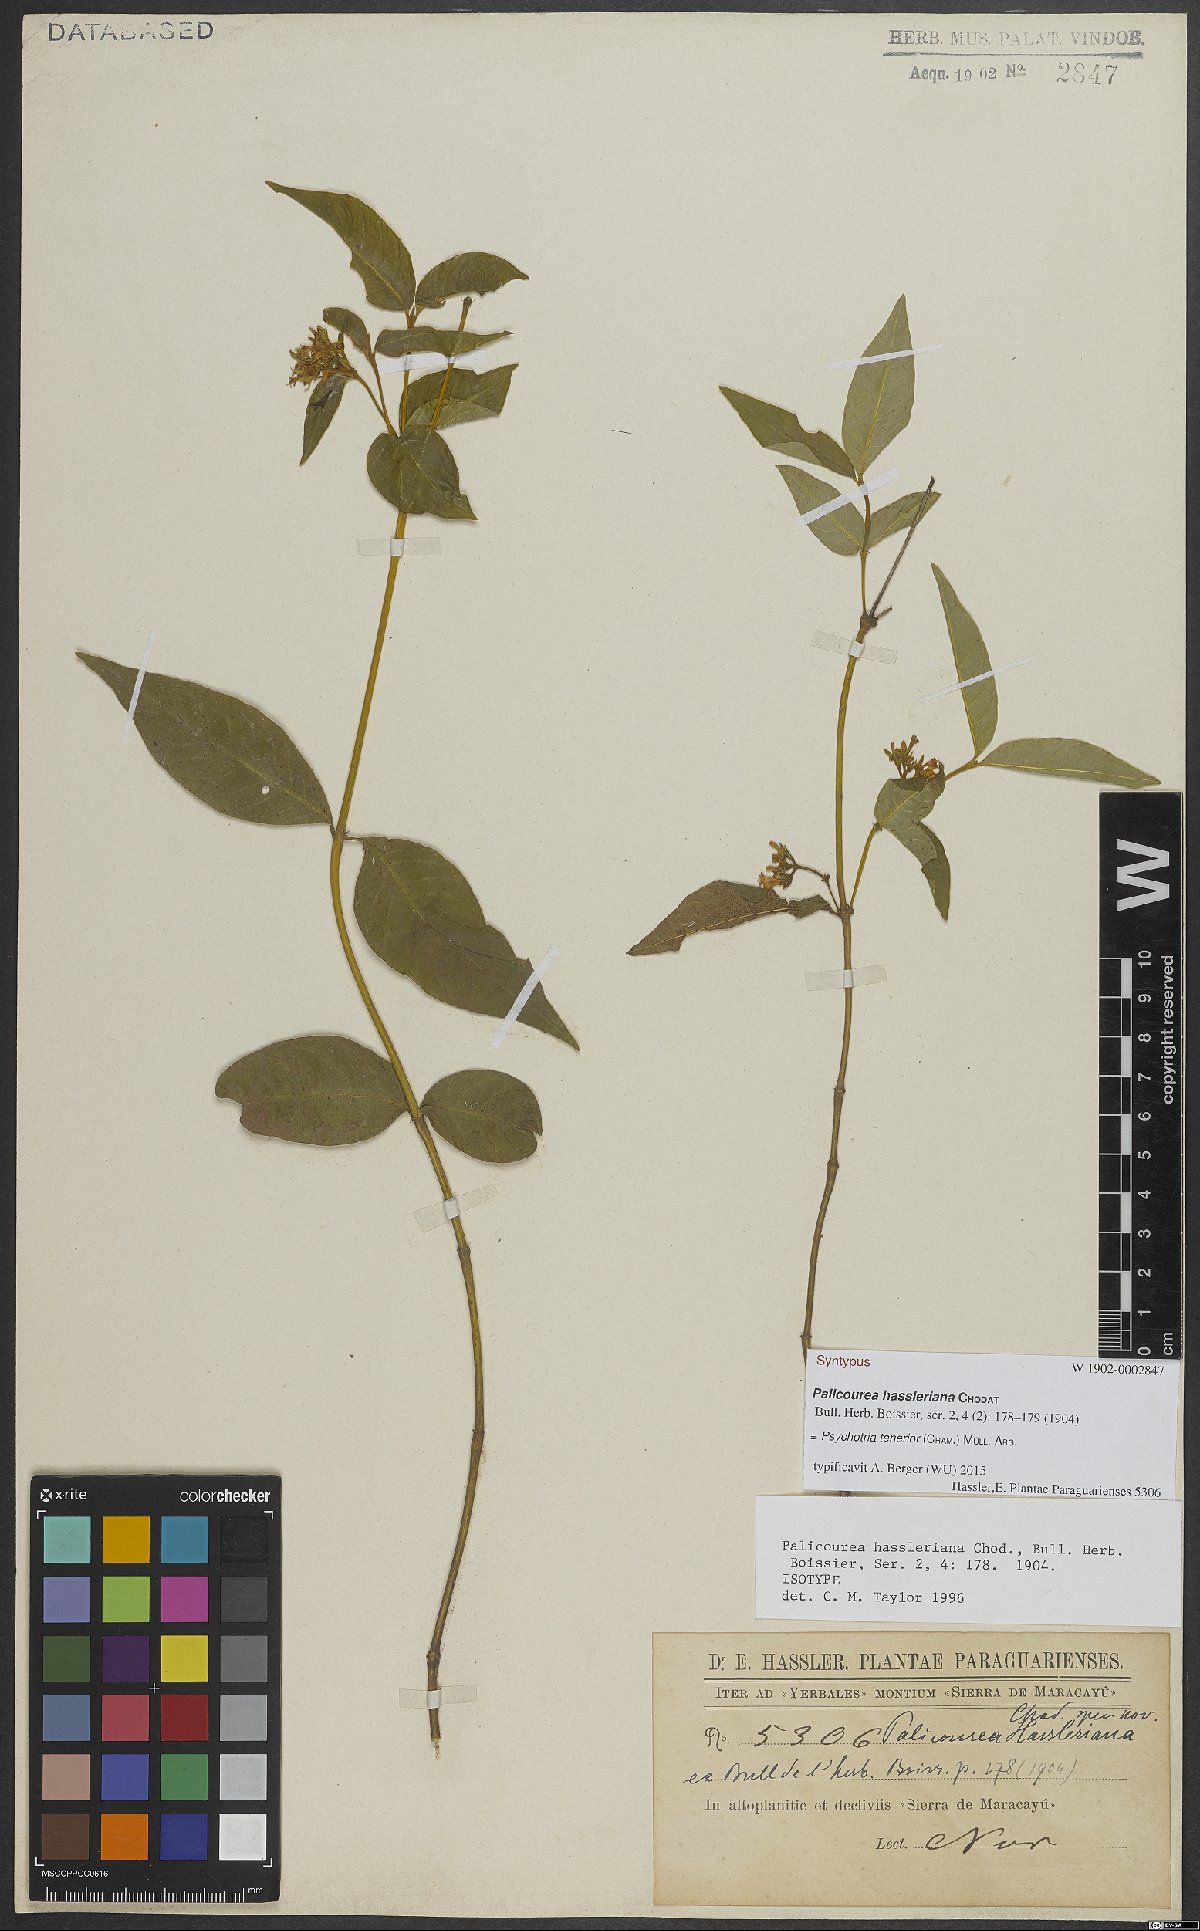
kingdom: Plantae
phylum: Tracheophyta
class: Magnoliopsida
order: Gentianales
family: Rubiaceae
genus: Palicourea
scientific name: Palicourea tenerior
